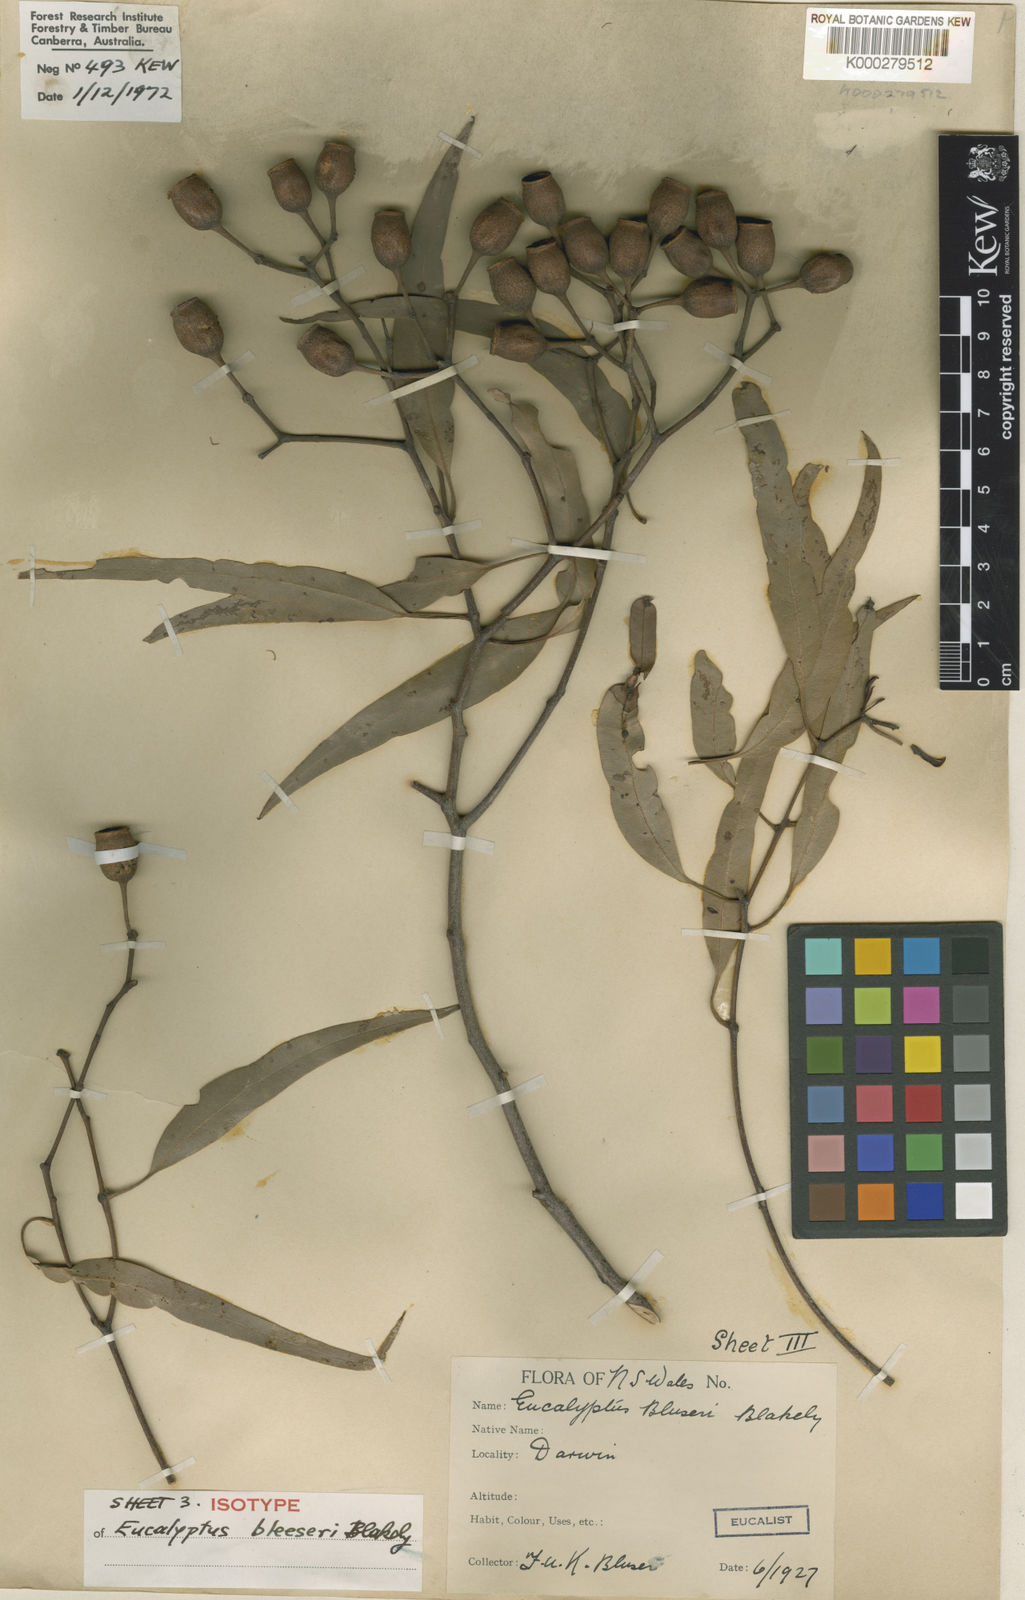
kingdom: Plantae
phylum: Tracheophyta
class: Magnoliopsida
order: Myrtales
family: Myrtaceae
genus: Corymbia
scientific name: Corymbia bleeseri
